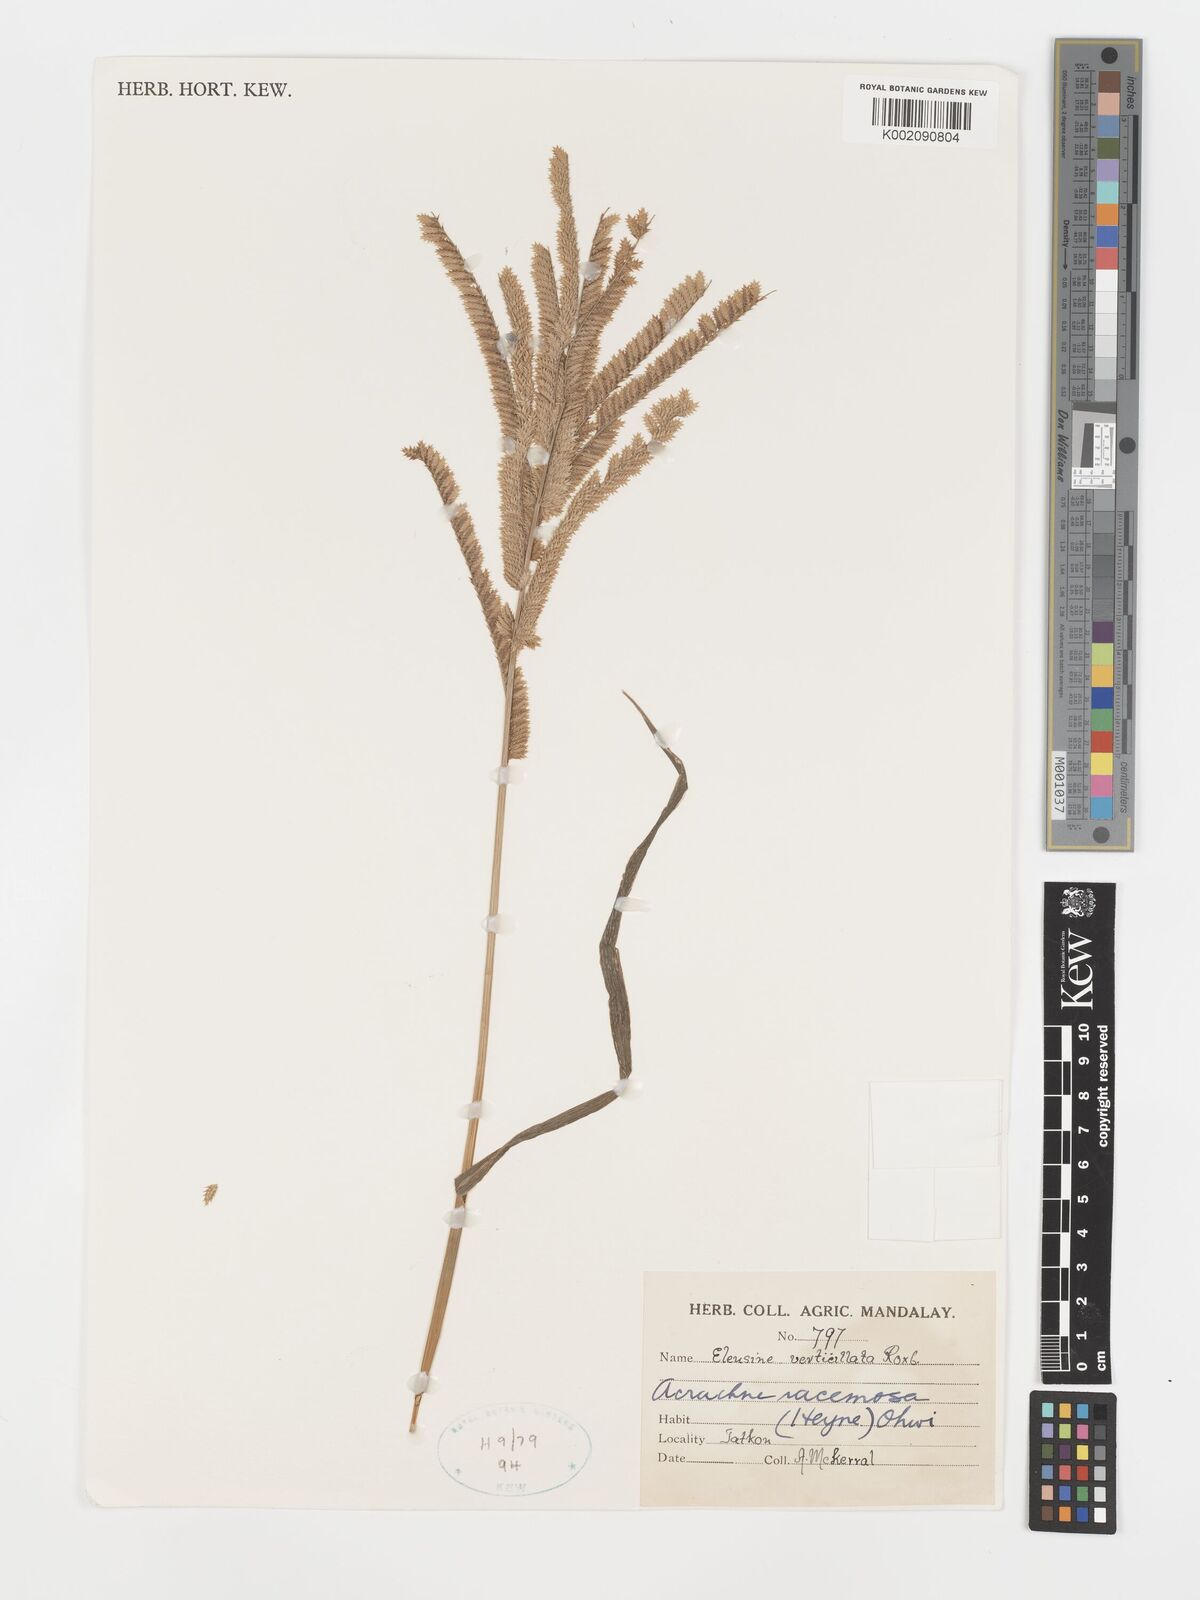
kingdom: Plantae
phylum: Tracheophyta
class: Liliopsida
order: Poales
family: Poaceae
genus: Acrachne
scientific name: Acrachne racemosa
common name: Goosegrass
